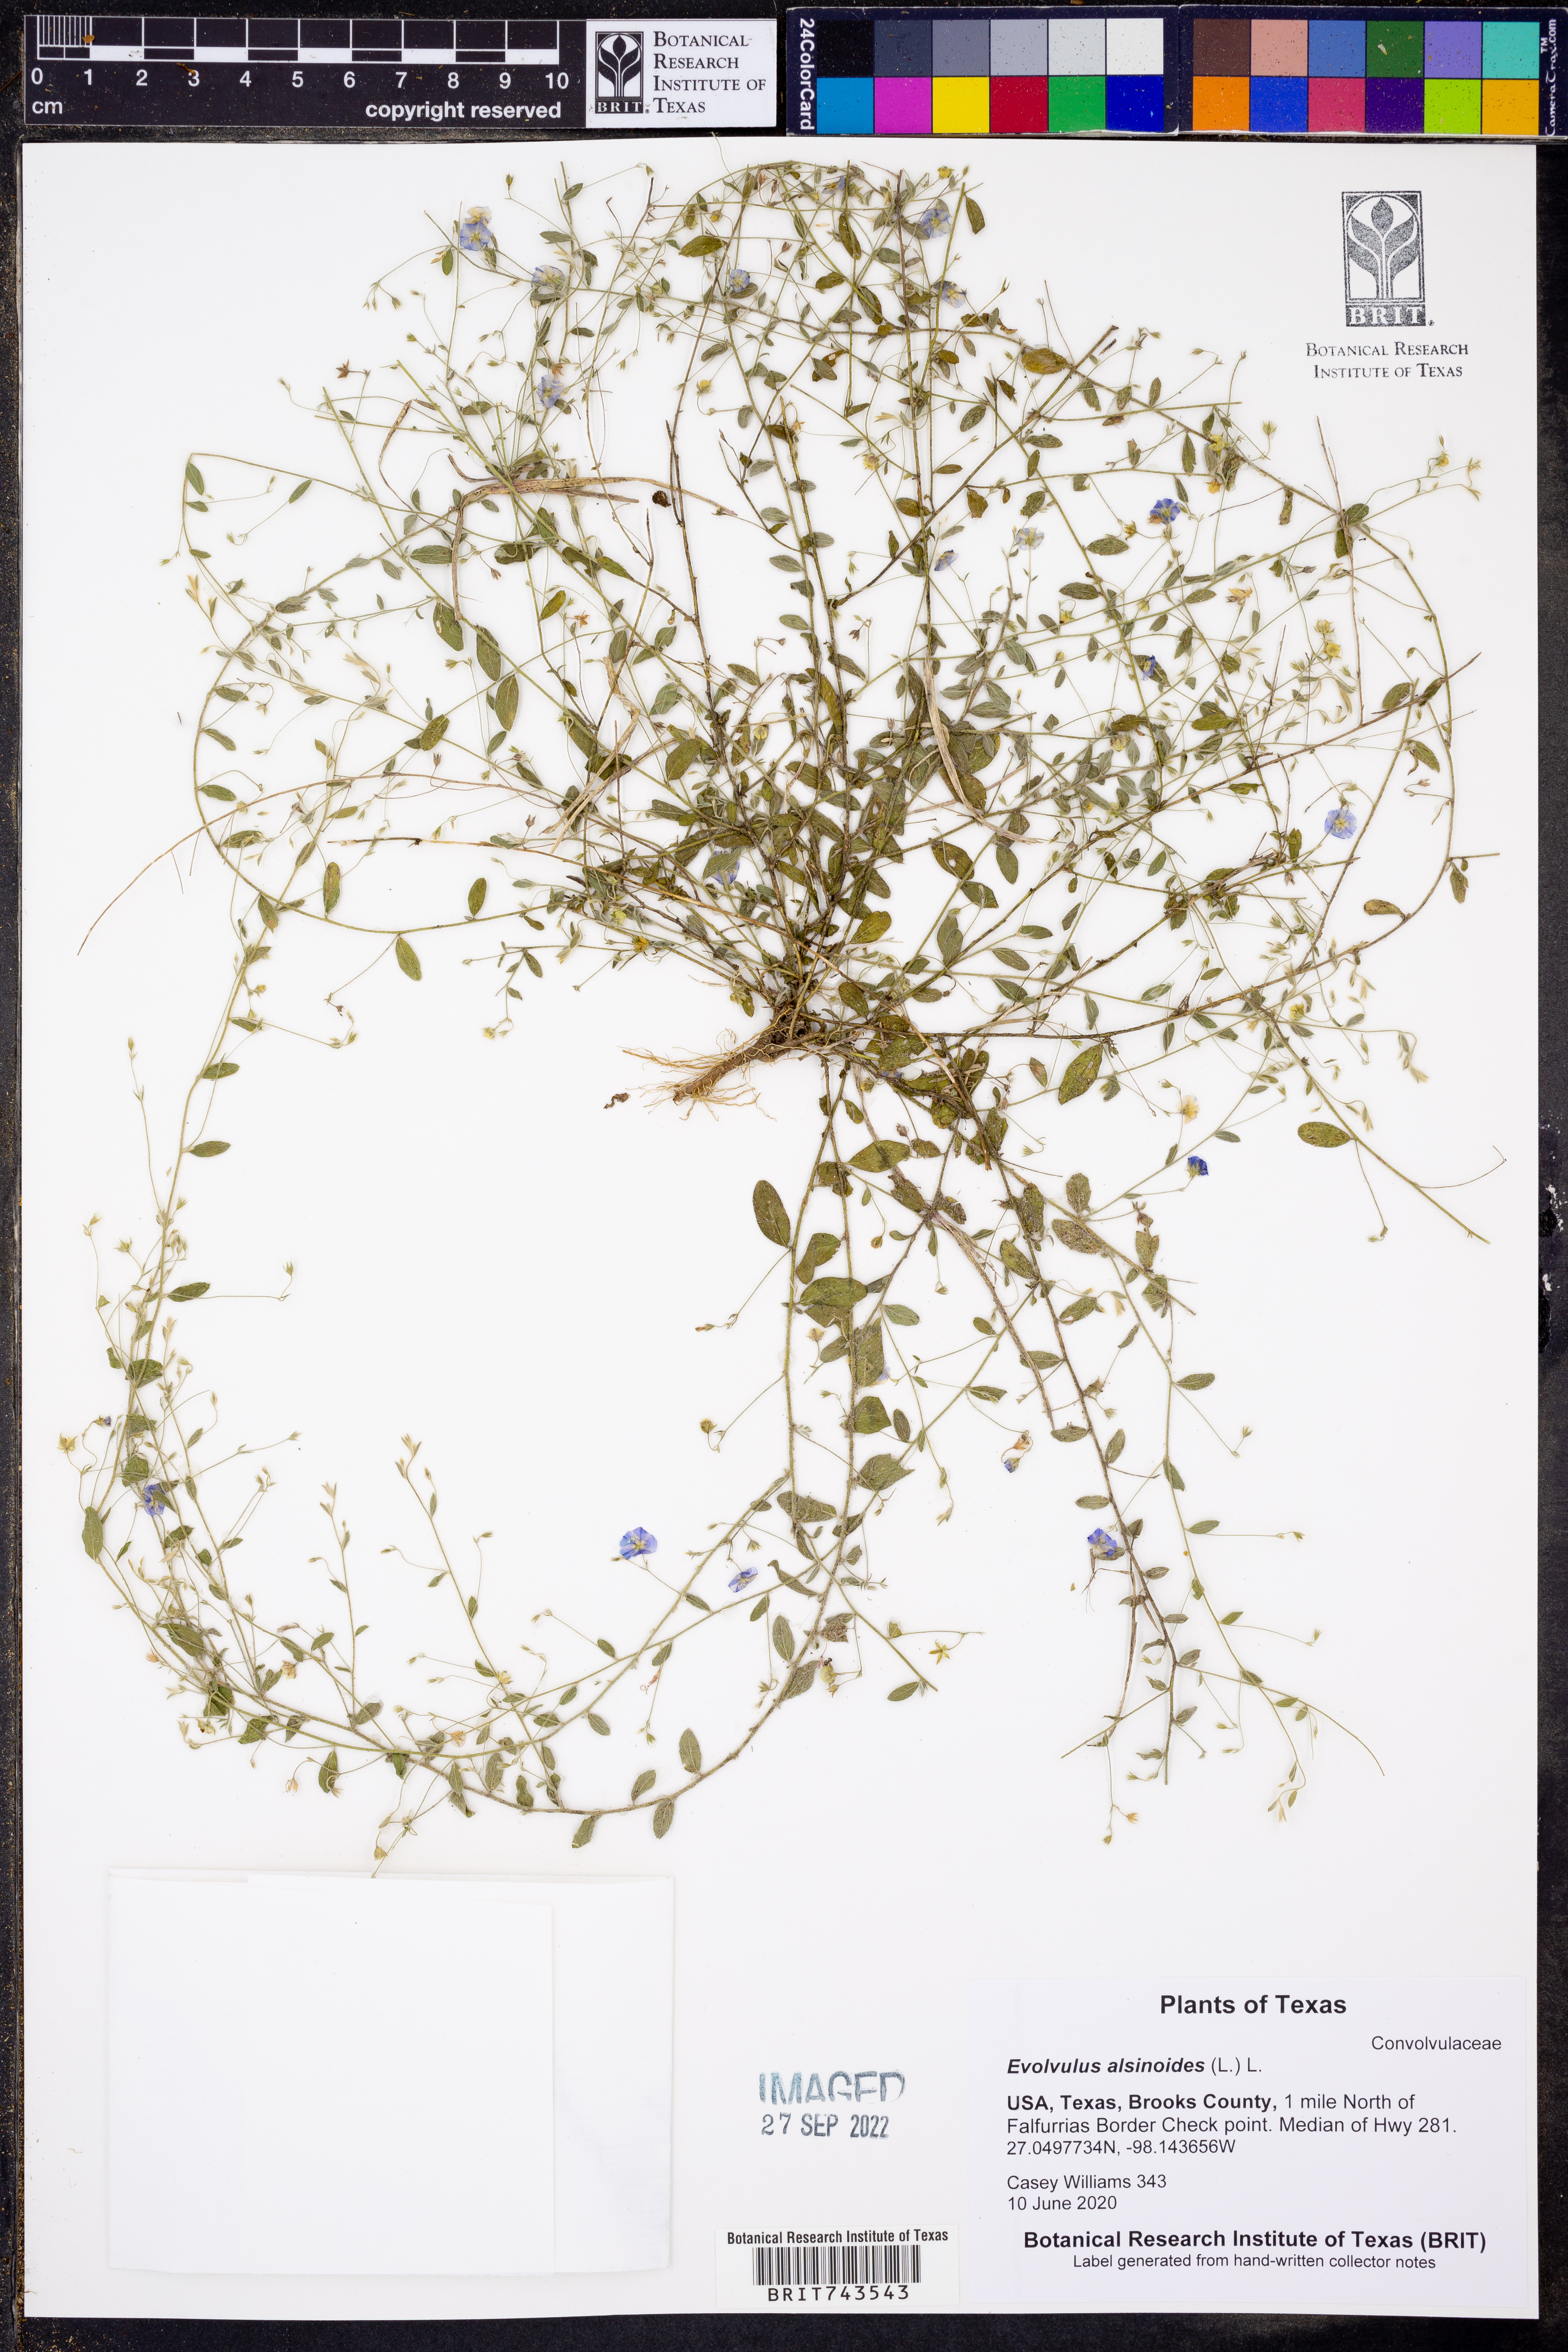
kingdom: Plantae
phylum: Tracheophyta
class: Magnoliopsida
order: Solanales
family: Convolvulaceae
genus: Evolvulus
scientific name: Evolvulus alsinoides
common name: Slender dwarf morning-glory
